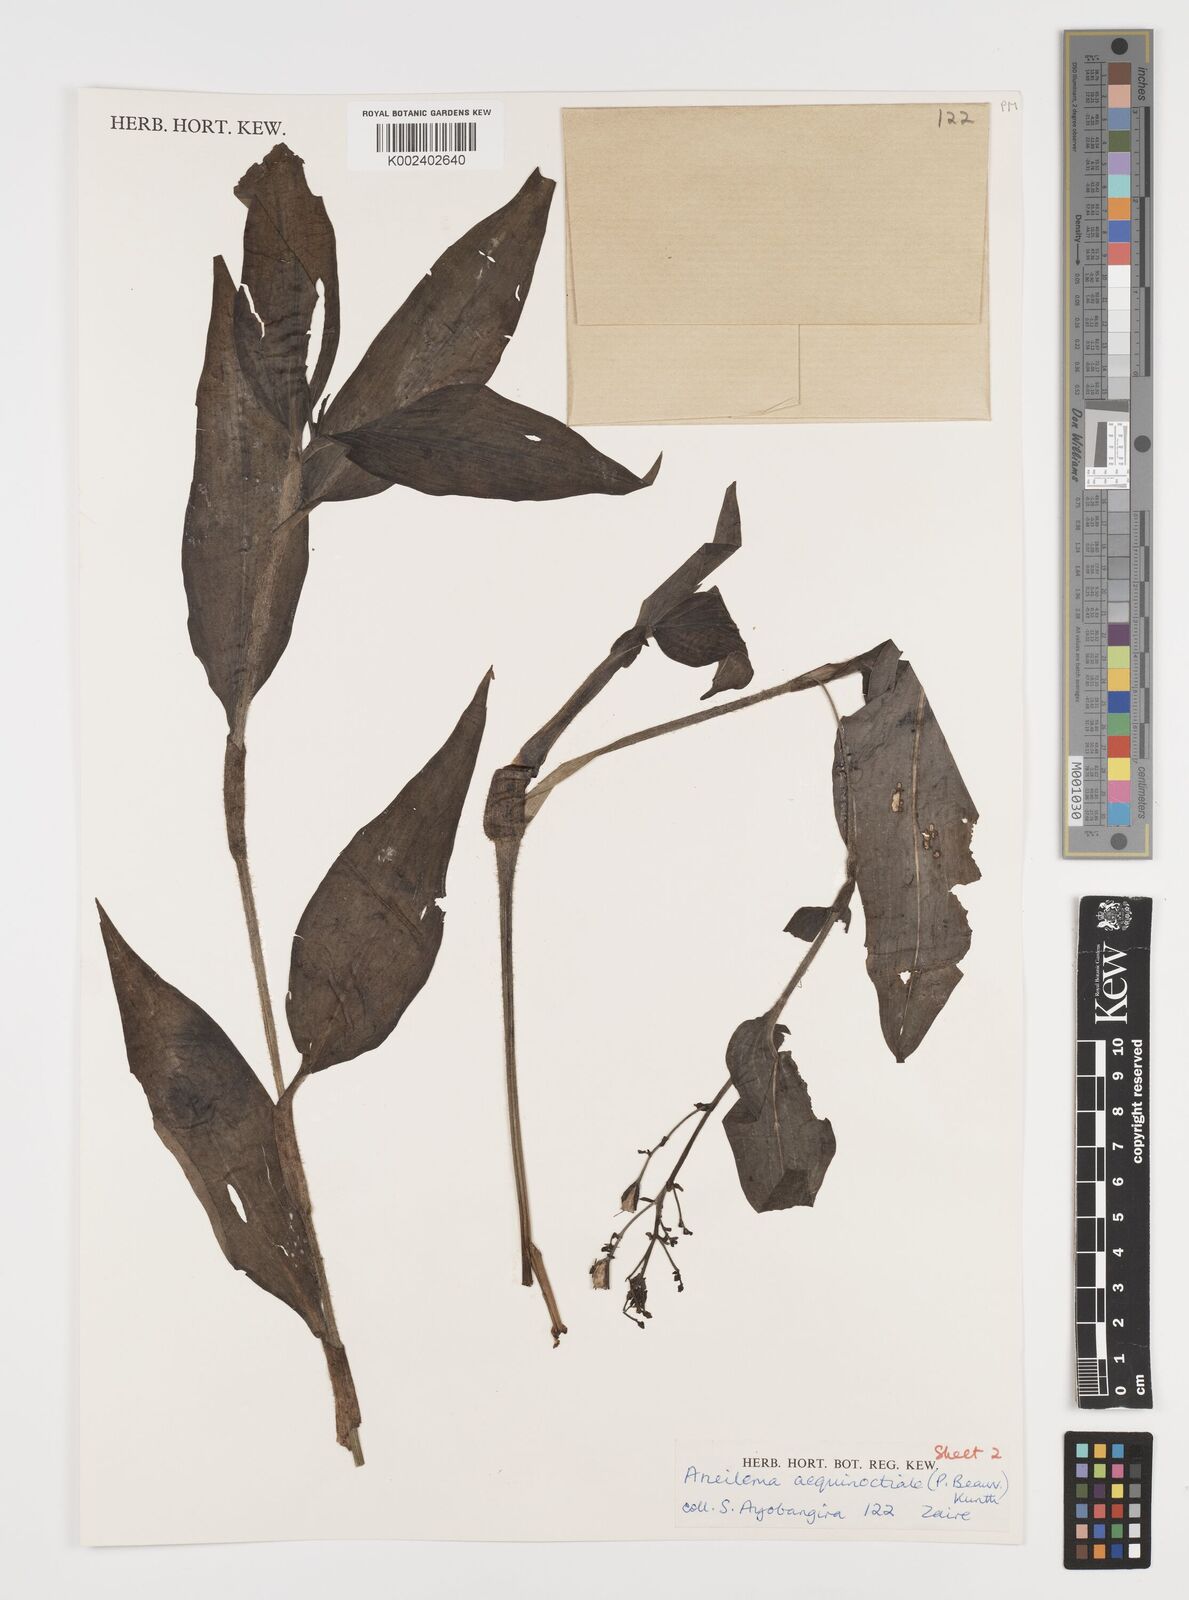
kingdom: Plantae
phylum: Tracheophyta
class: Liliopsida
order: Commelinales
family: Commelinaceae
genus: Aneilema
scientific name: Aneilema aequinoctiale
